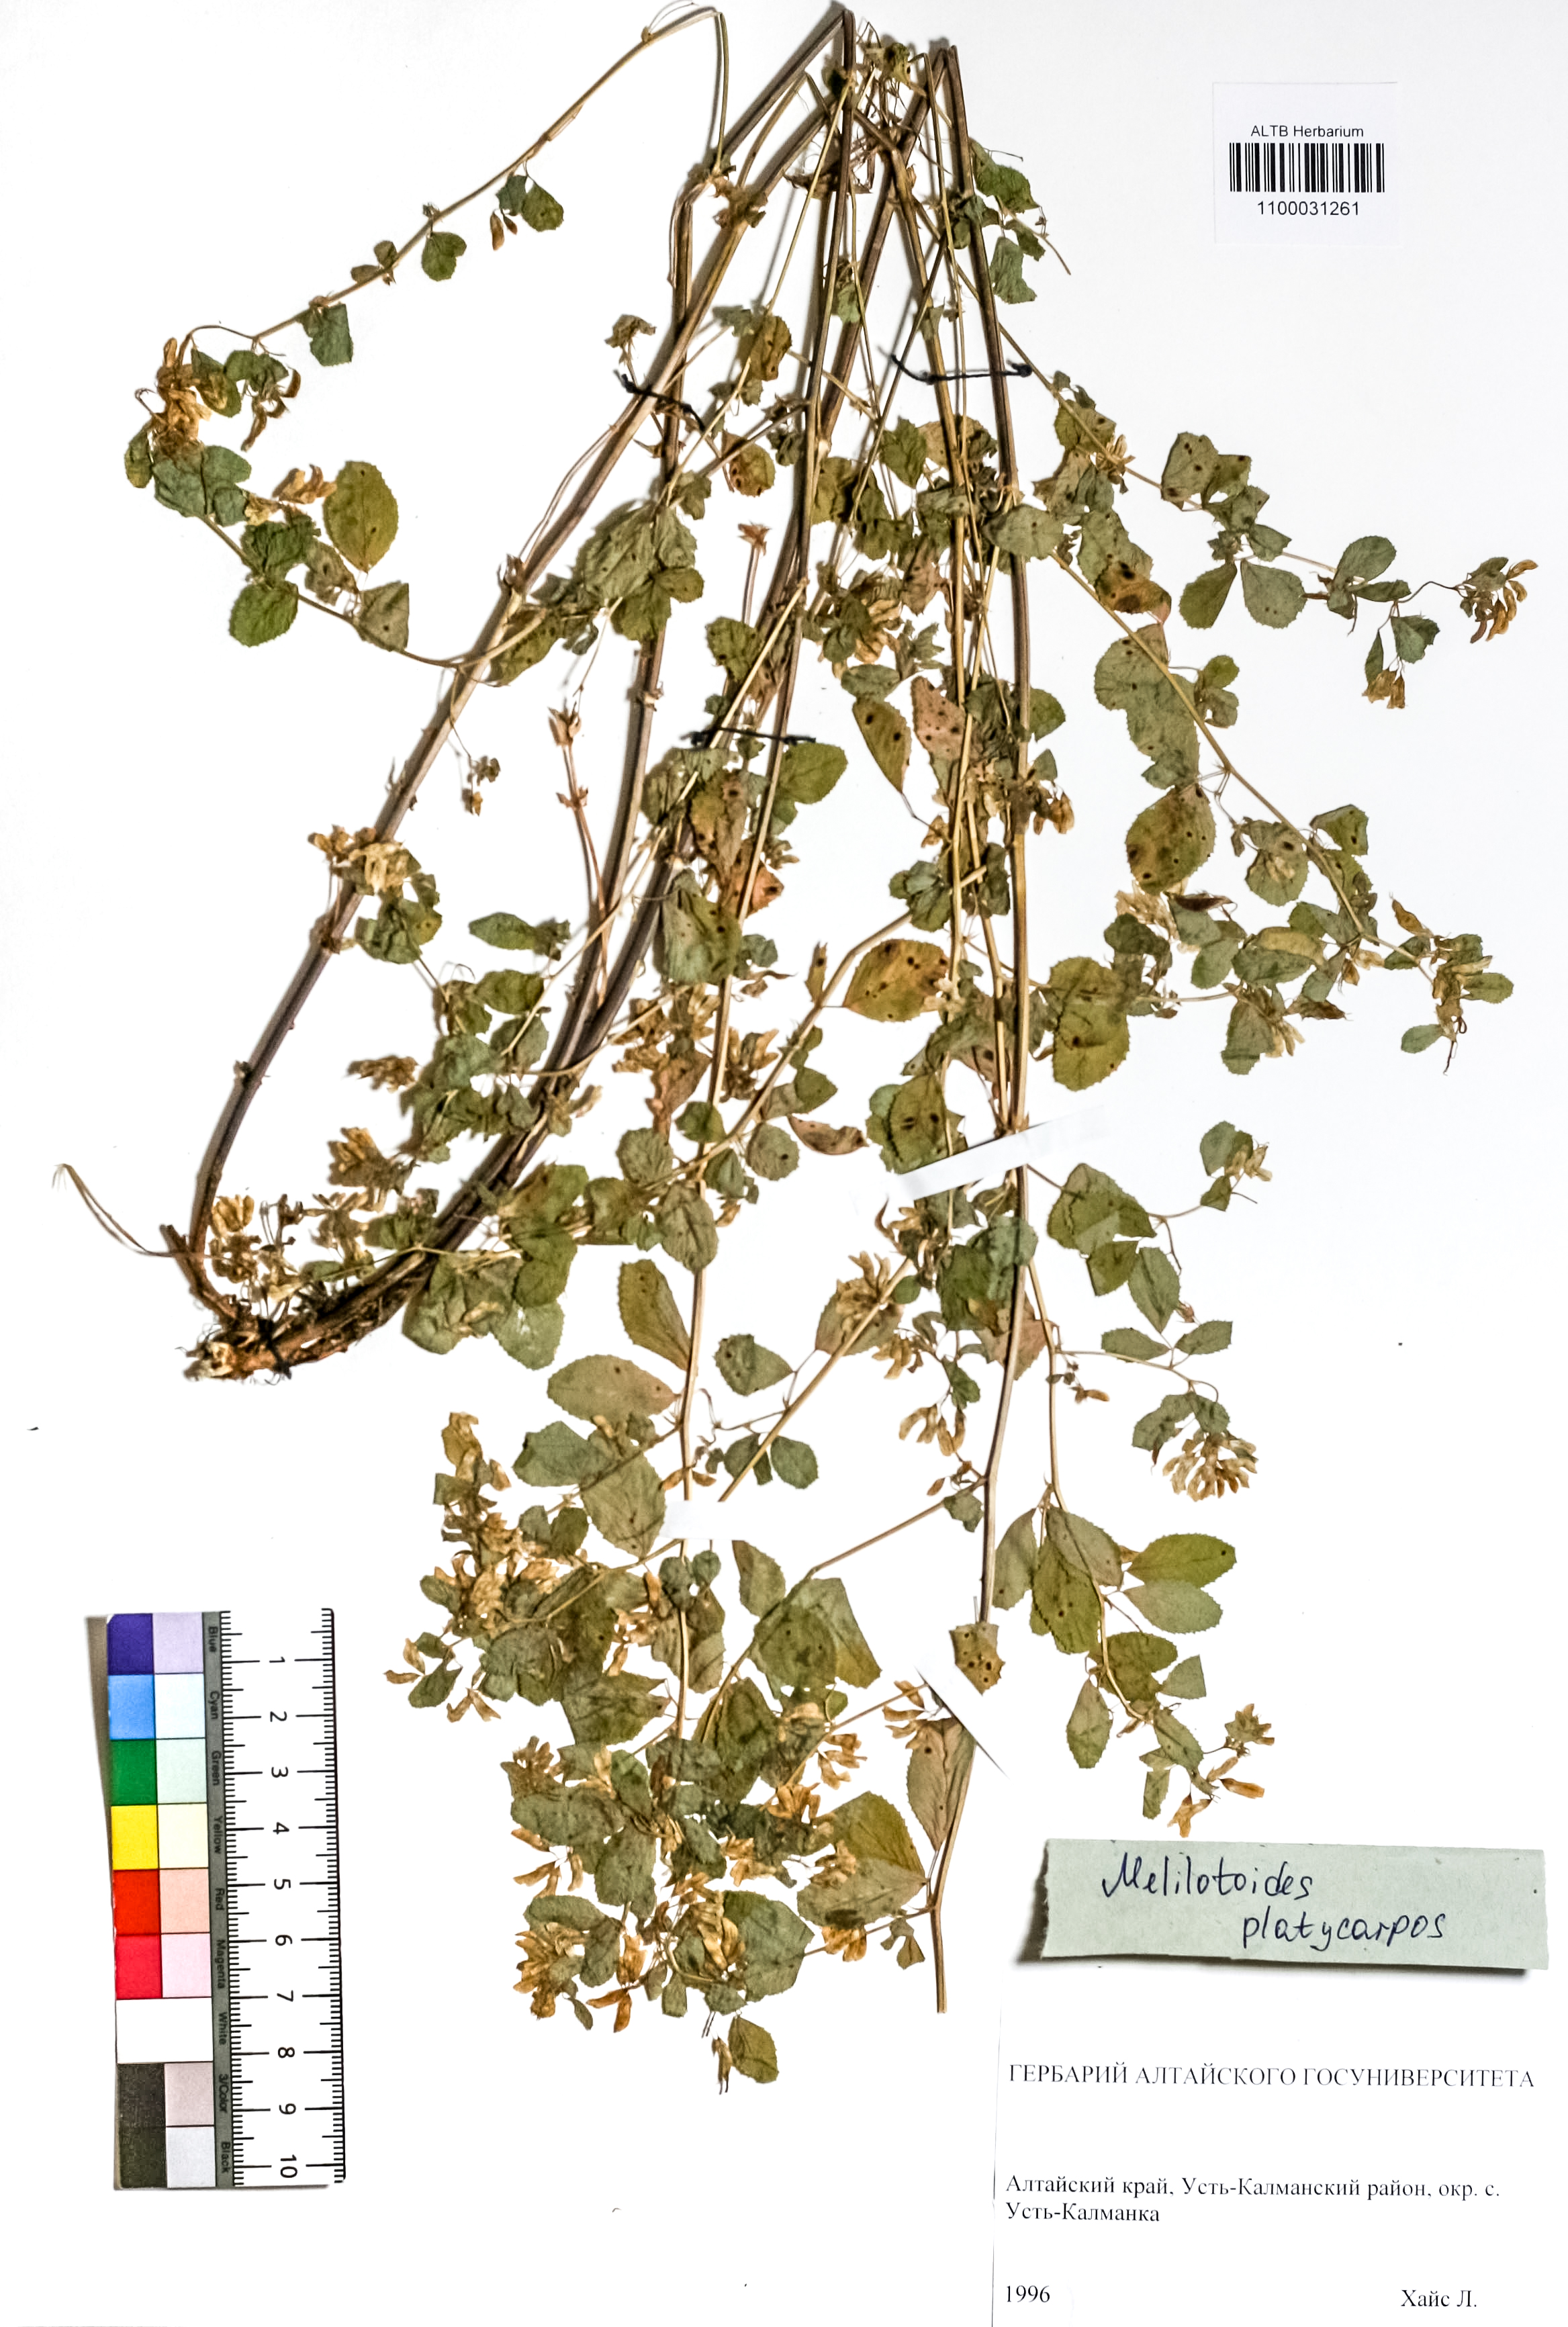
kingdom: Plantae
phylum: Tracheophyta
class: Magnoliopsida
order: Fabales
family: Fabaceae
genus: Medicago
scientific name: Medicago platycarpos
